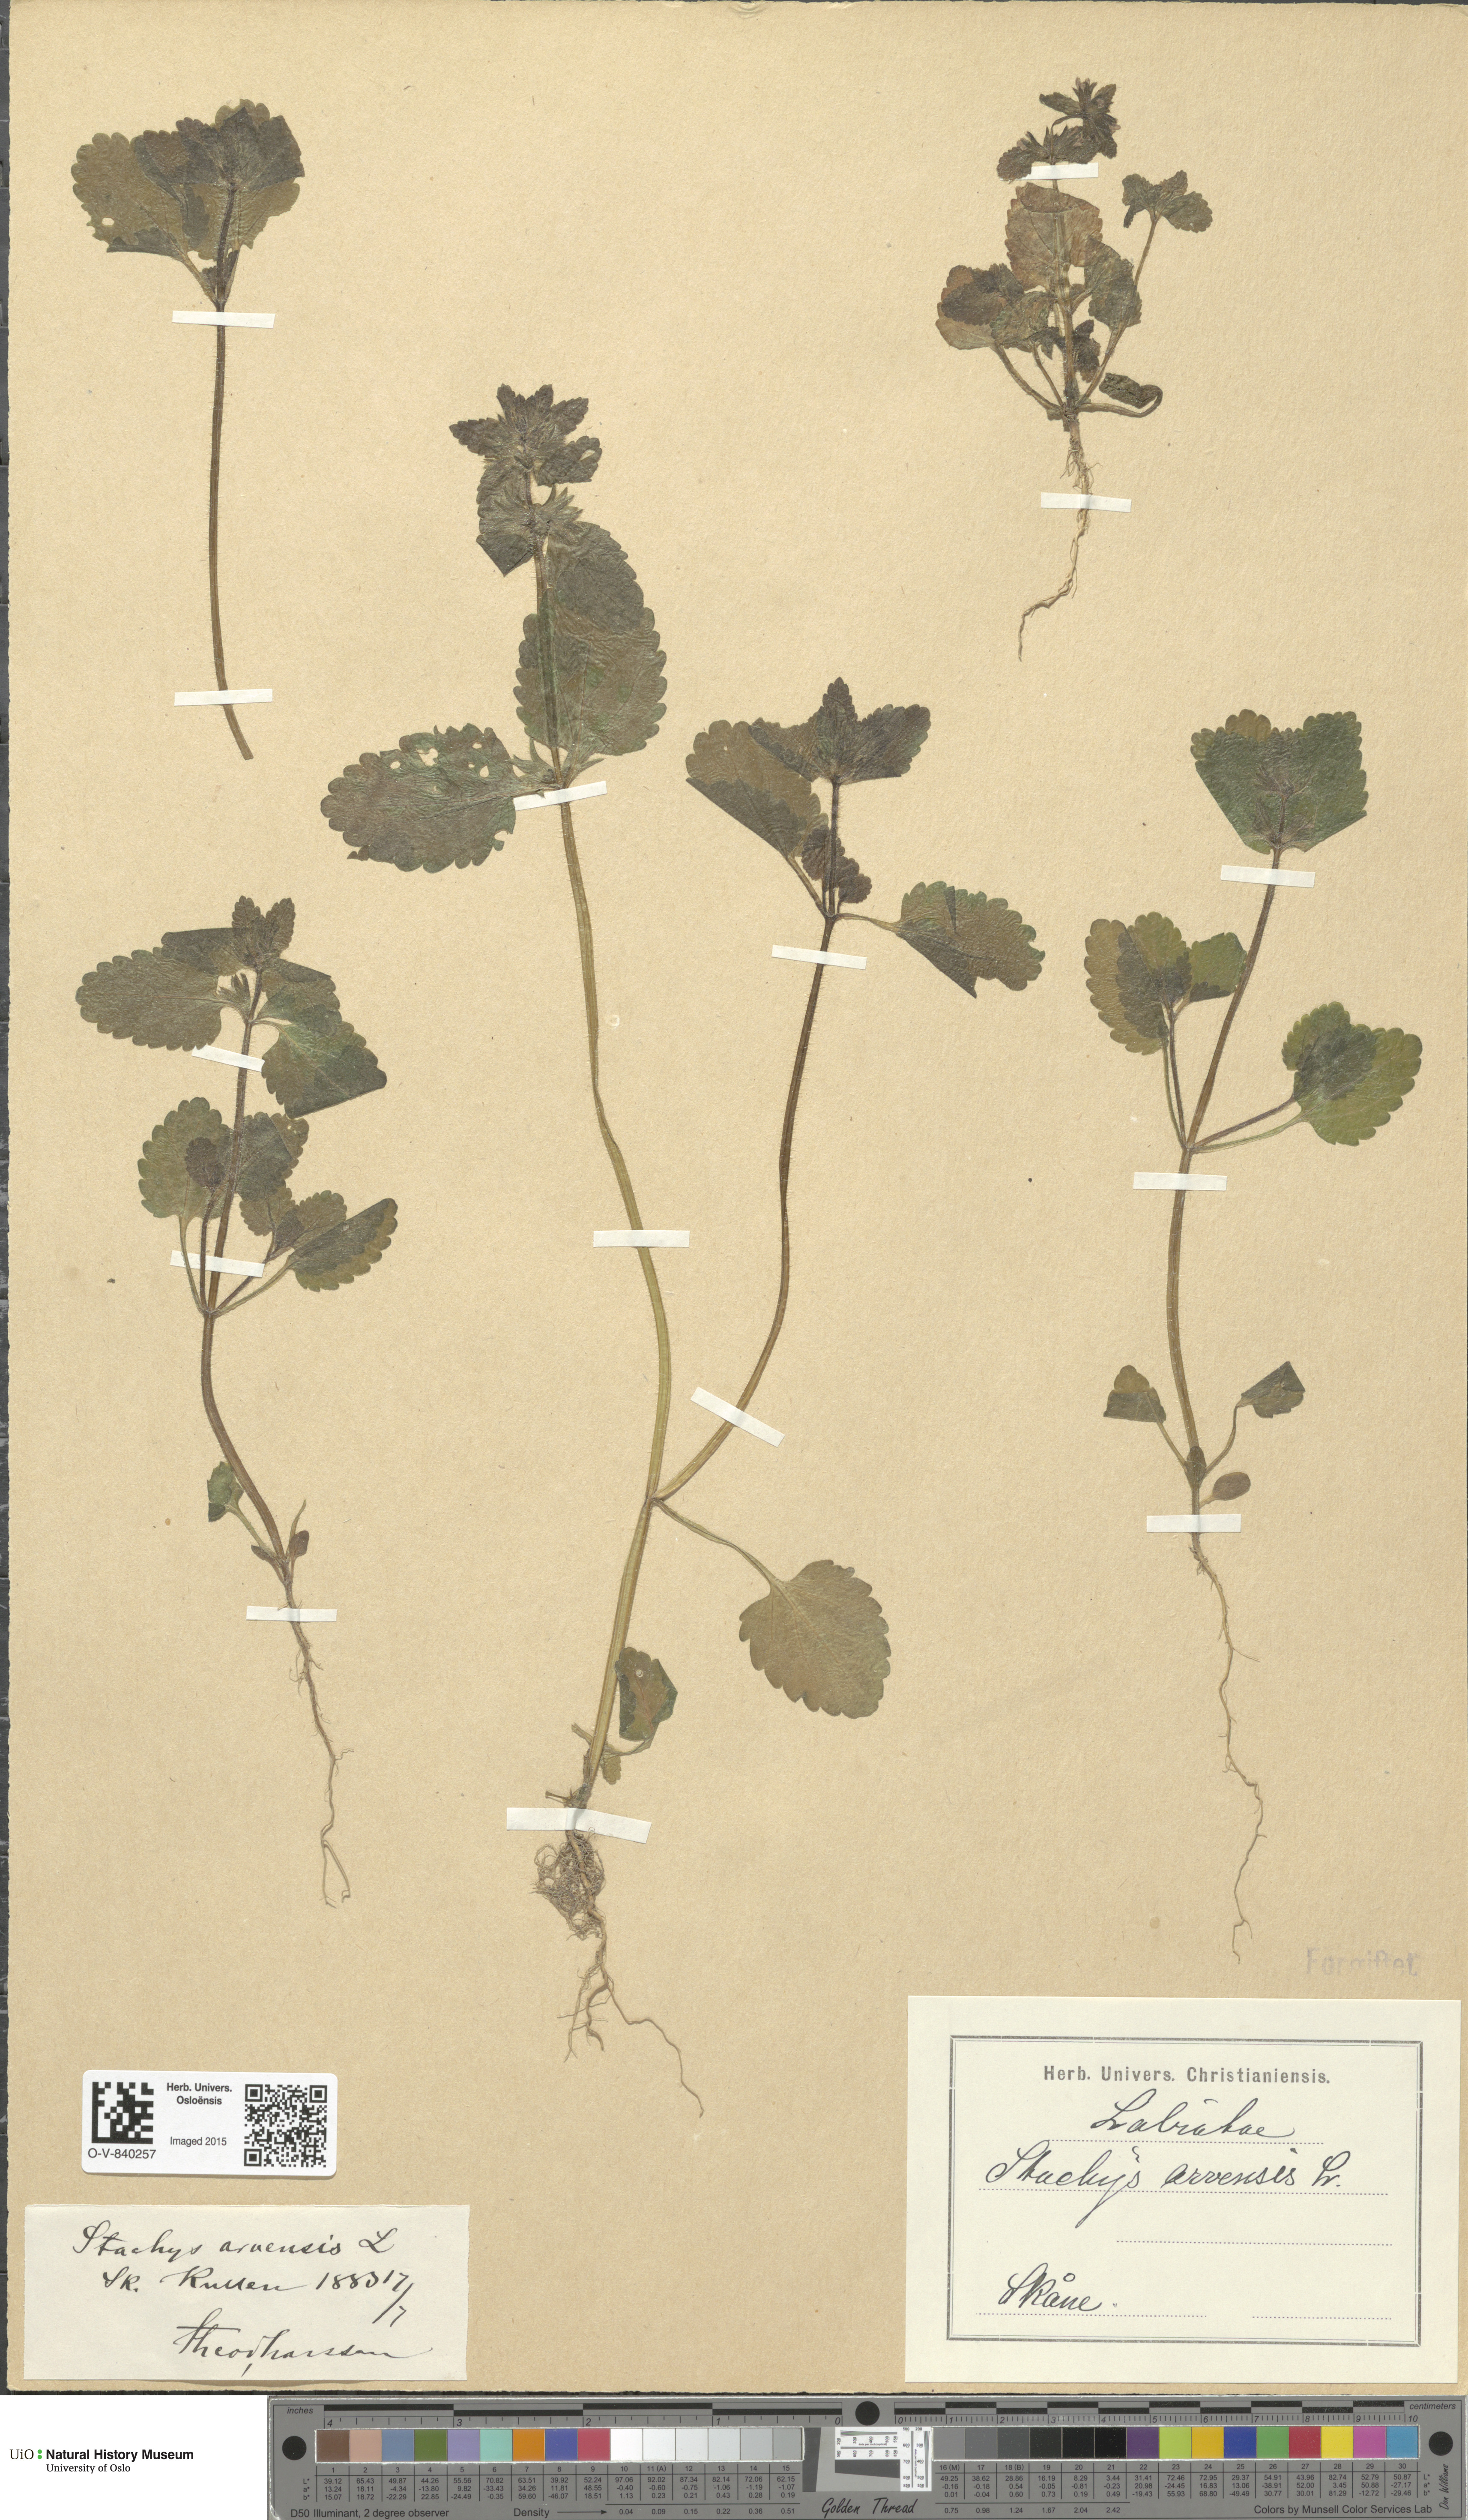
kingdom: Plantae
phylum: Tracheophyta
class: Magnoliopsida
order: Lamiales
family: Lamiaceae
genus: Stachys
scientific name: Stachys arvensis
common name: Field woundwort
